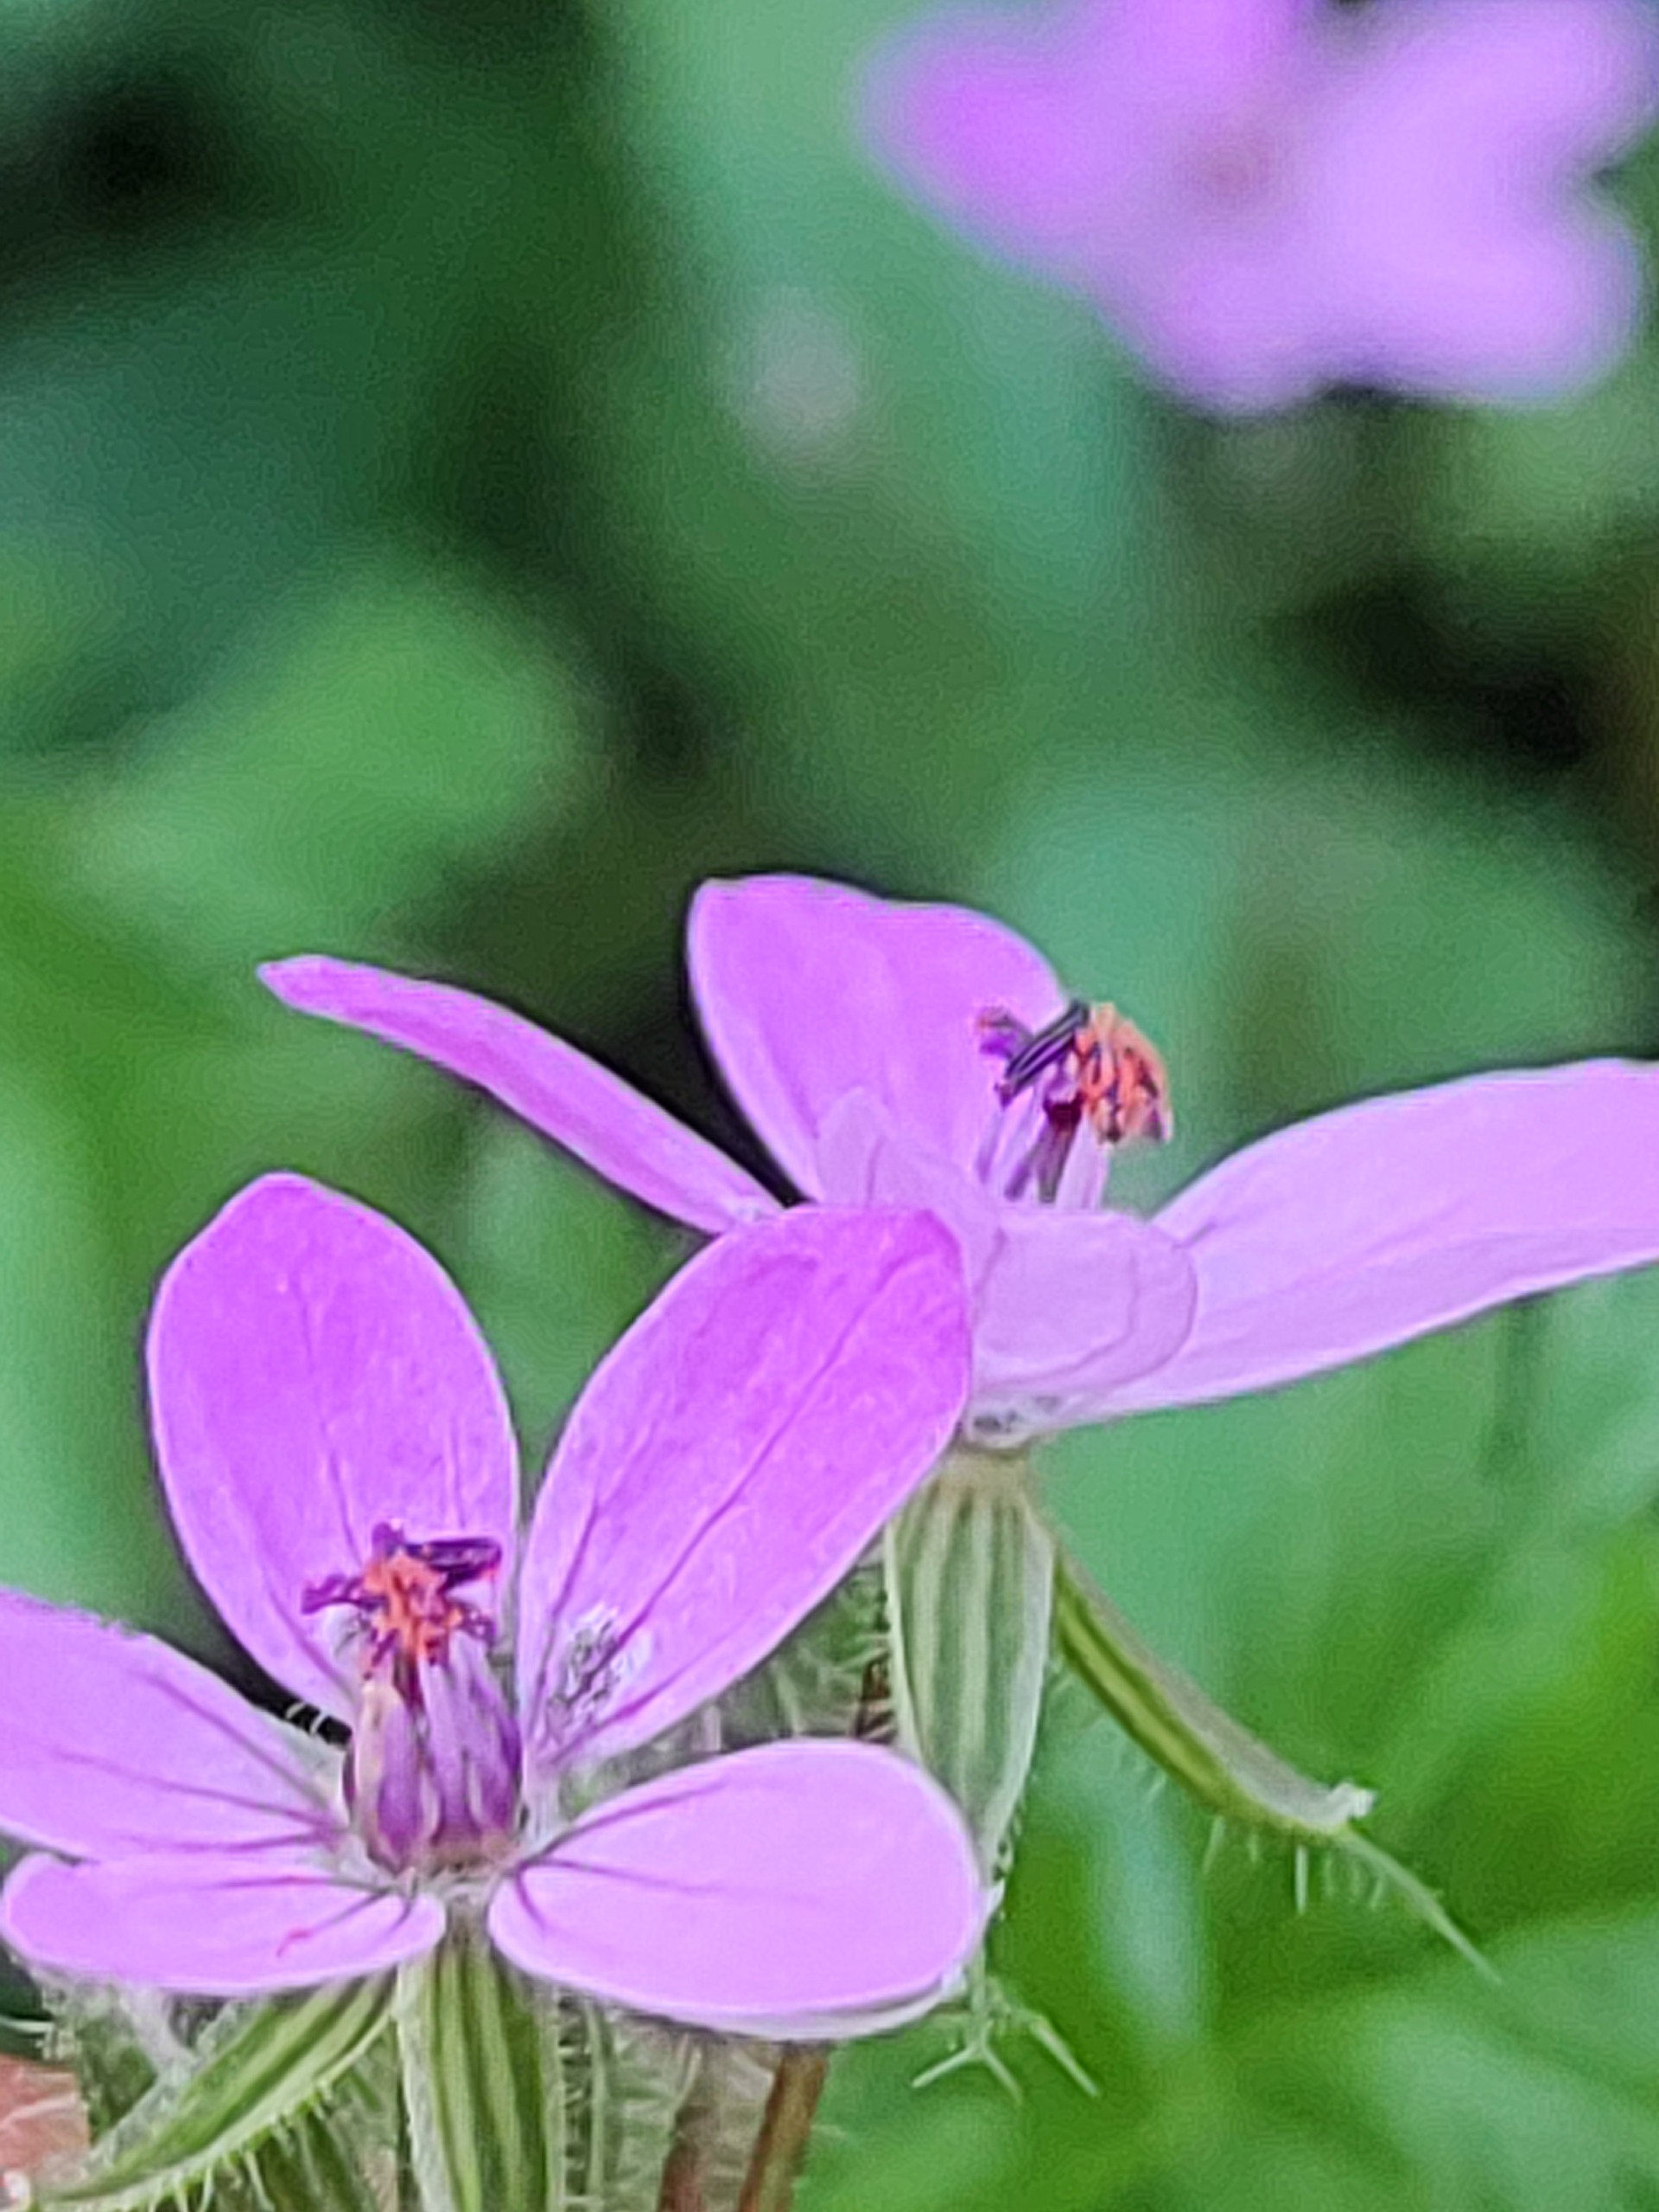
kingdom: Plantae
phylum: Tracheophyta
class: Magnoliopsida
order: Geraniales
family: Geraniaceae
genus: Erodium
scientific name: Erodium cicutarium
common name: Hejrenæb
